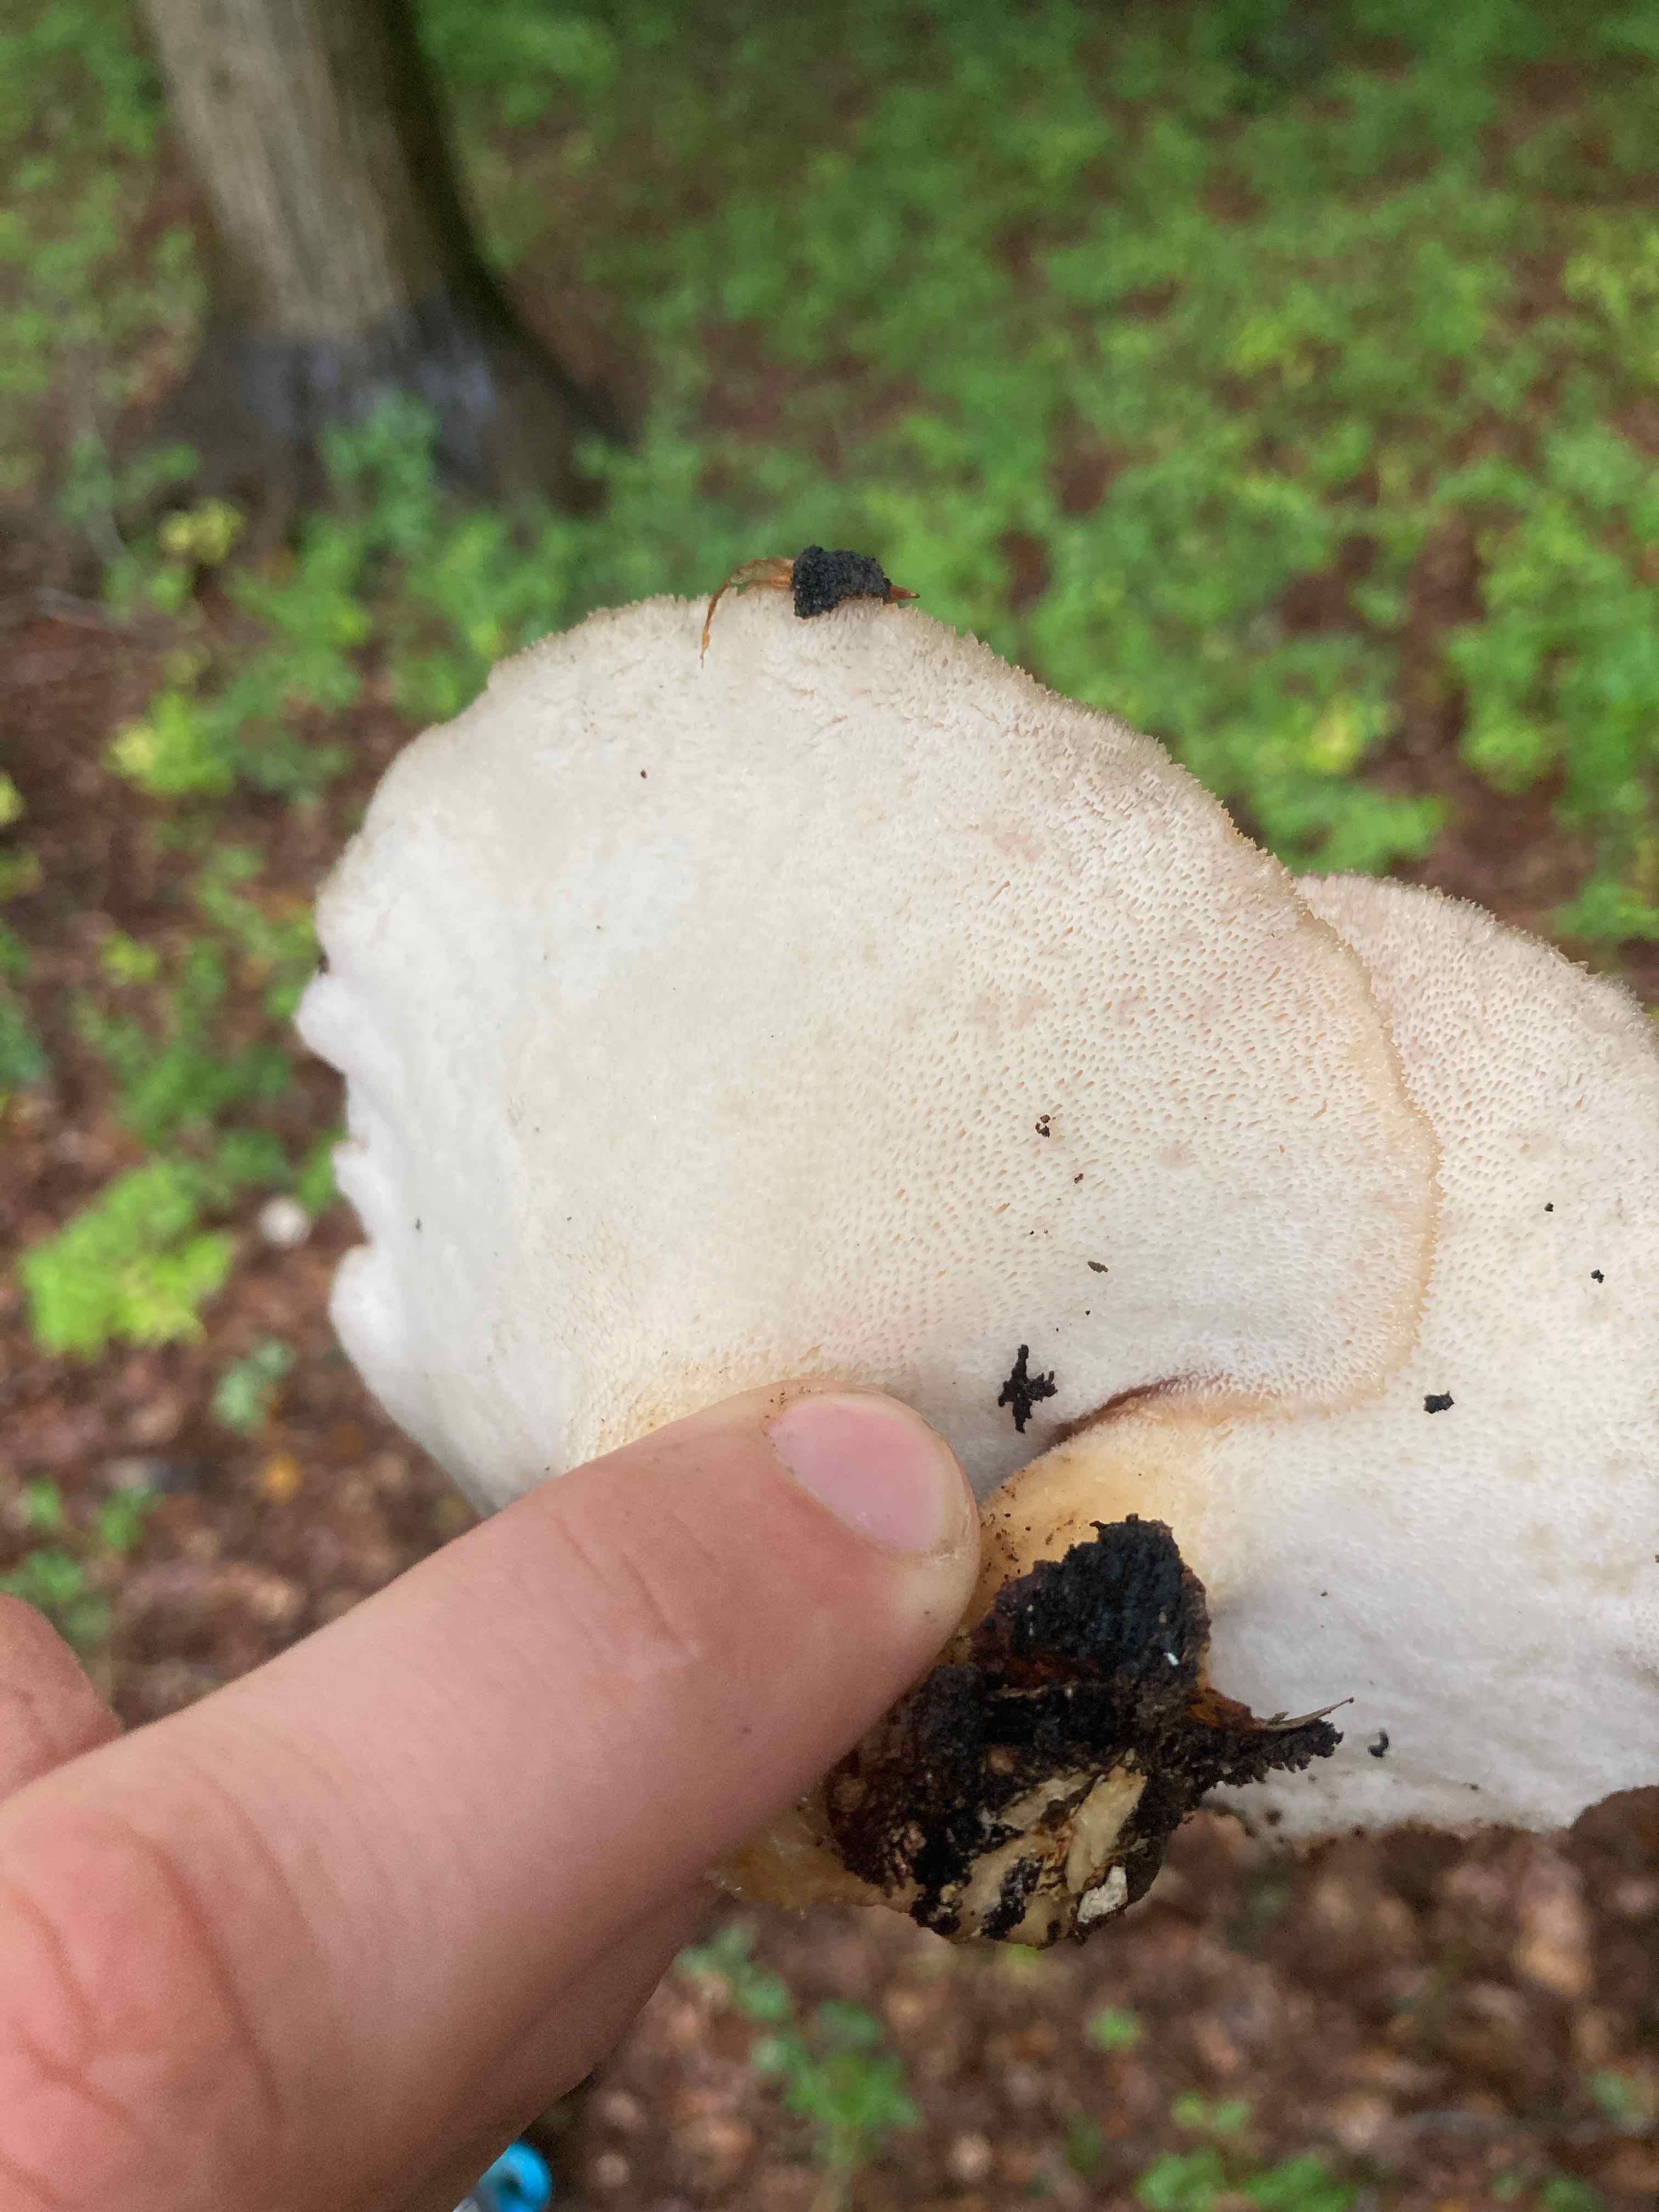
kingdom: Fungi
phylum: Basidiomycota
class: Agaricomycetes
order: Polyporales
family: Polyporaceae
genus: Polyporus
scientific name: Polyporus tuberaster
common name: knoldet stilkporesvamp
